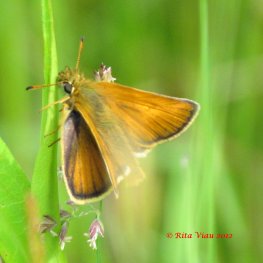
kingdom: Animalia
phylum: Arthropoda
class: Insecta
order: Lepidoptera
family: Hesperiidae
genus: Thymelicus
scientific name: Thymelicus lineola
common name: European Skipper
